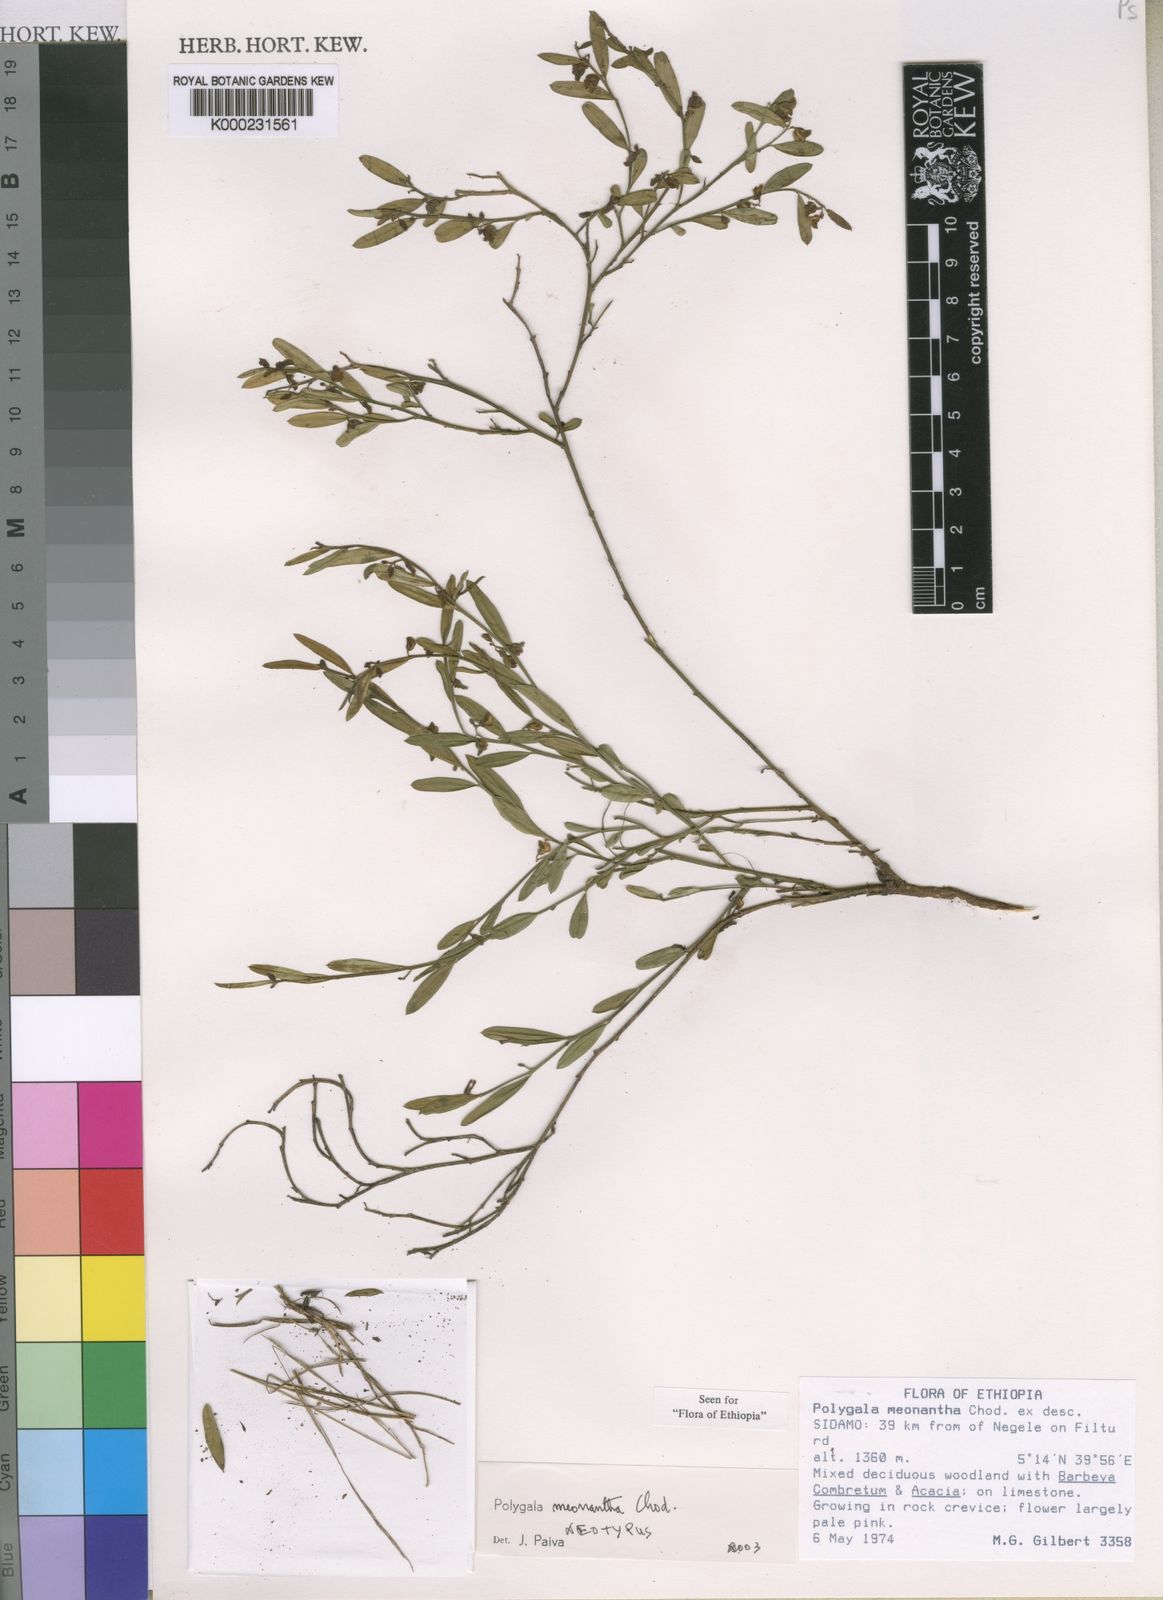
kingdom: Plantae
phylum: Tracheophyta
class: Magnoliopsida
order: Fabales
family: Polygalaceae
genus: Polygala
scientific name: Polygala meonantha
